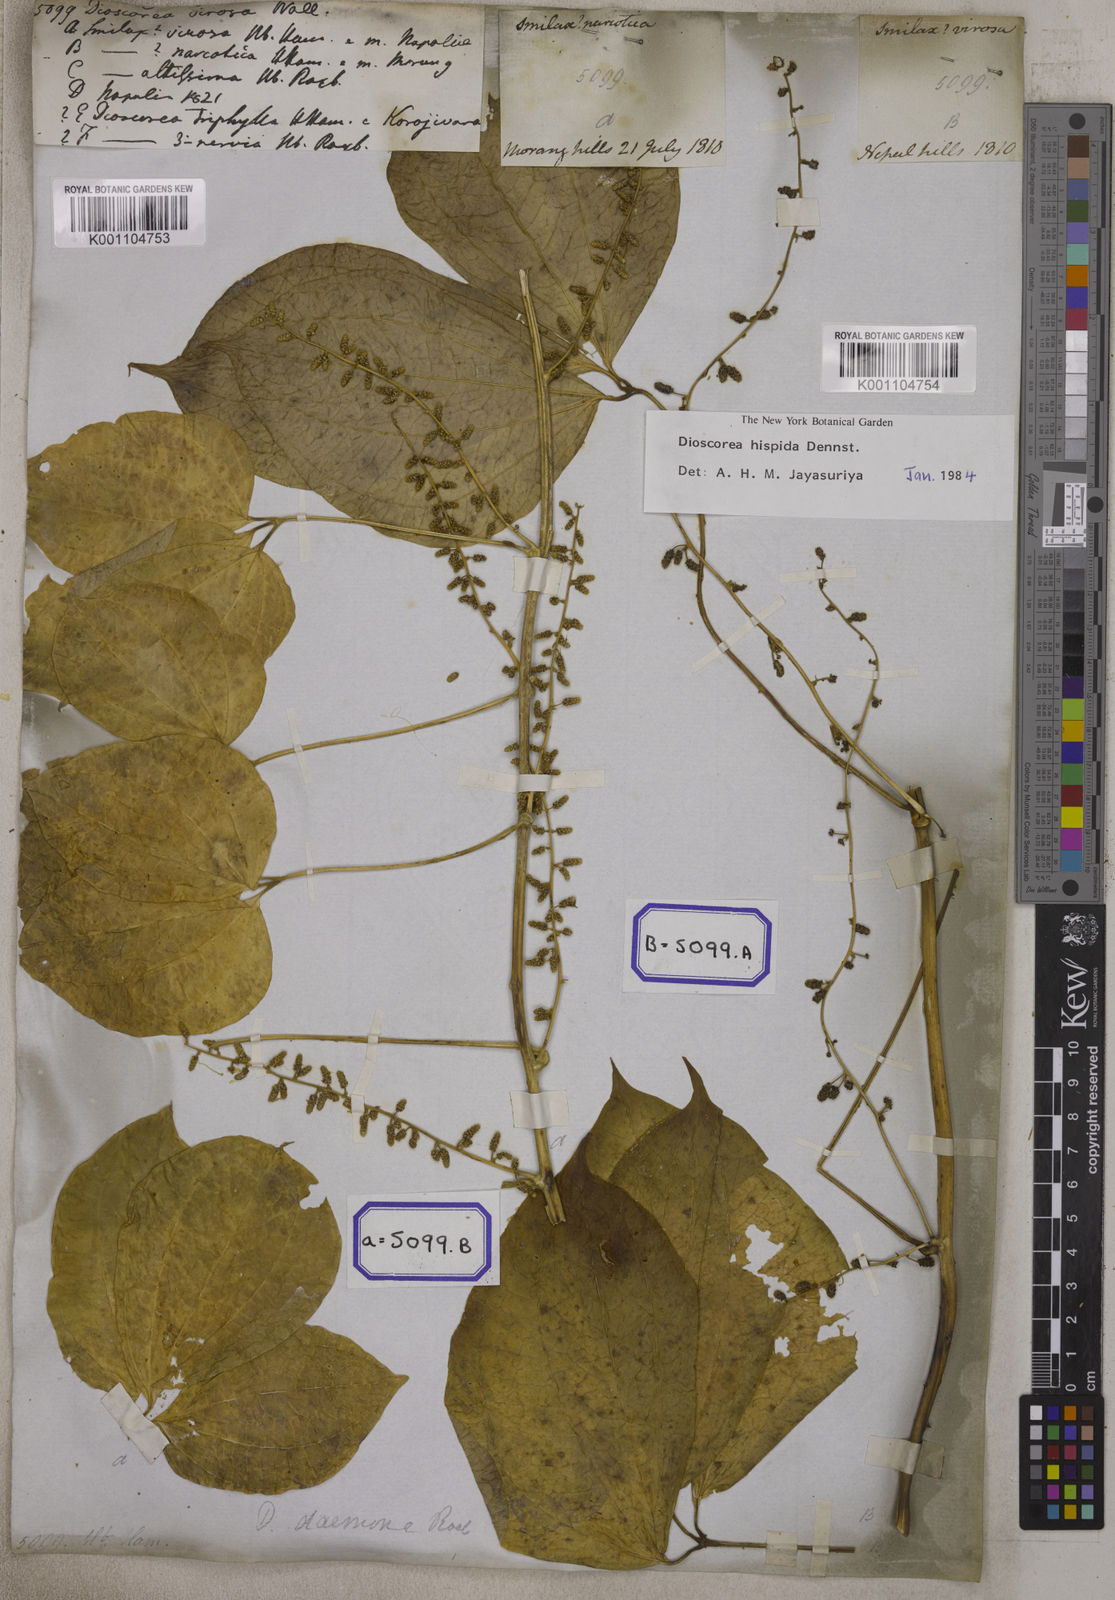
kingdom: Plantae
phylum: Tracheophyta
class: Liliopsida
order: Dioscoreales
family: Dioscoreaceae
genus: Dioscorea
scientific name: Dioscorea
